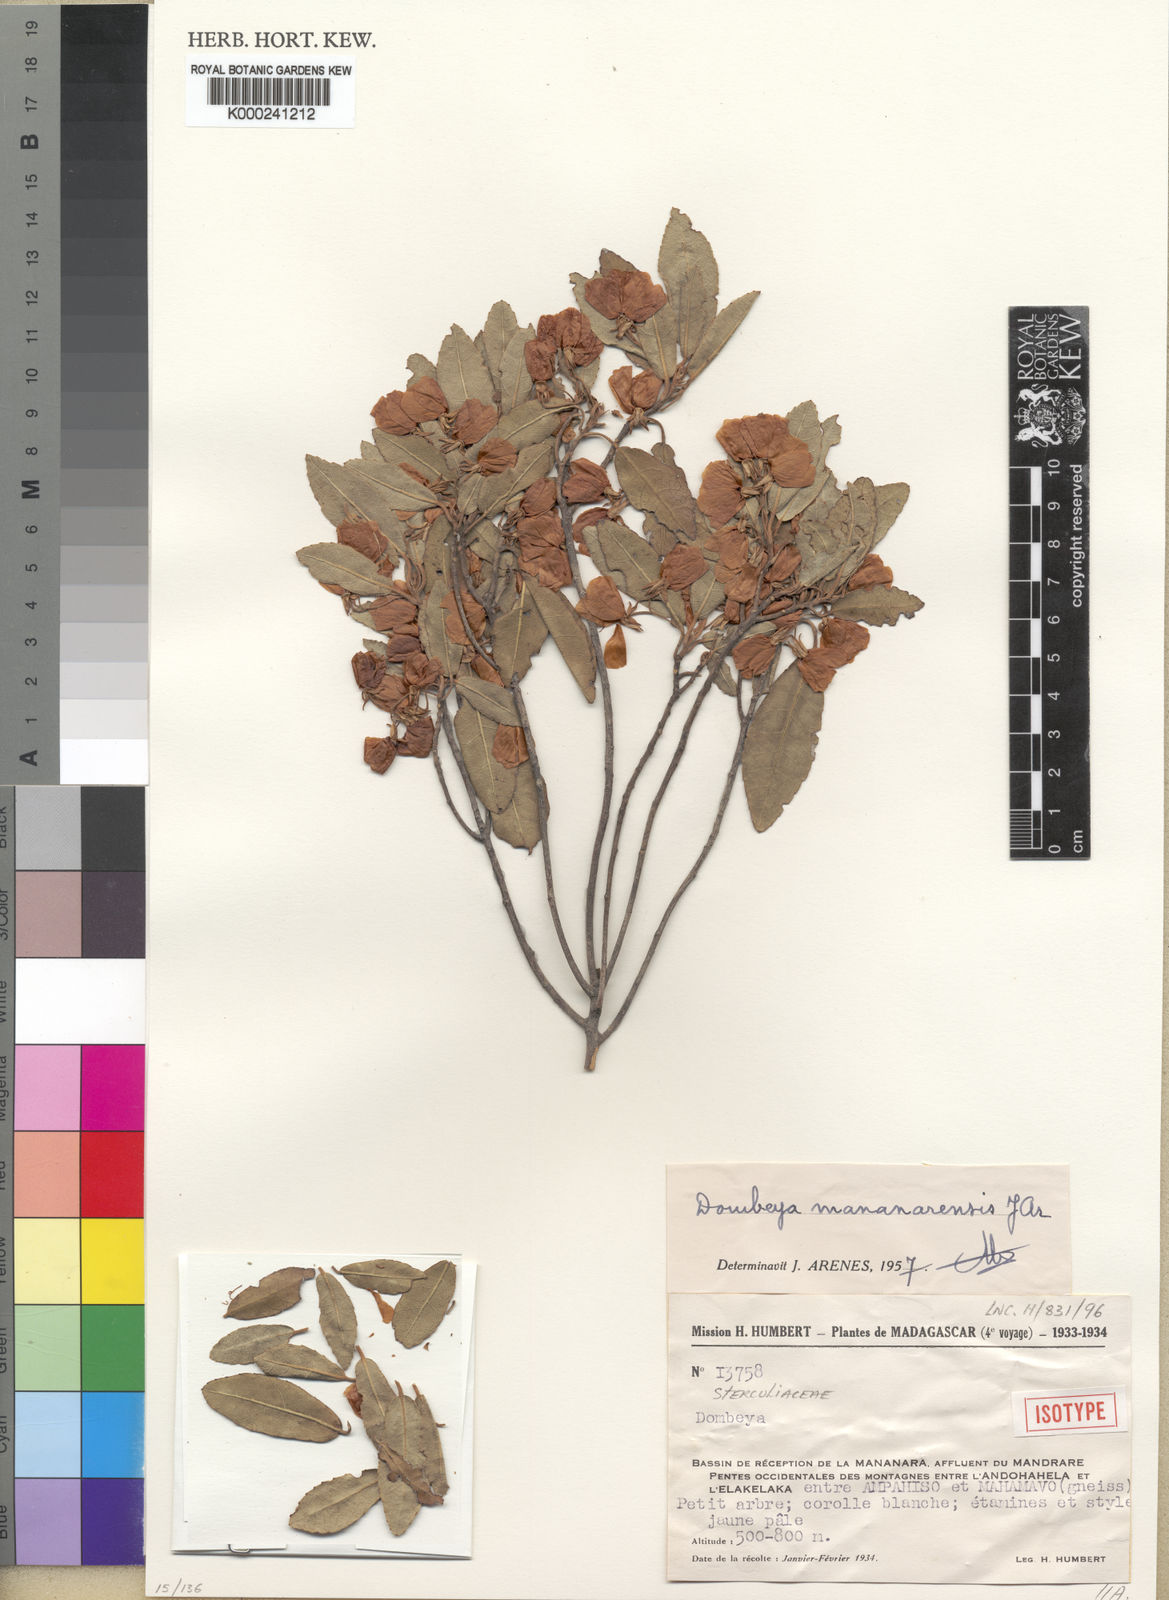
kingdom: Plantae
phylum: Tracheophyta
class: Magnoliopsida
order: Malvales
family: Malvaceae
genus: Dombeya
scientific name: Dombeya mananarensis
